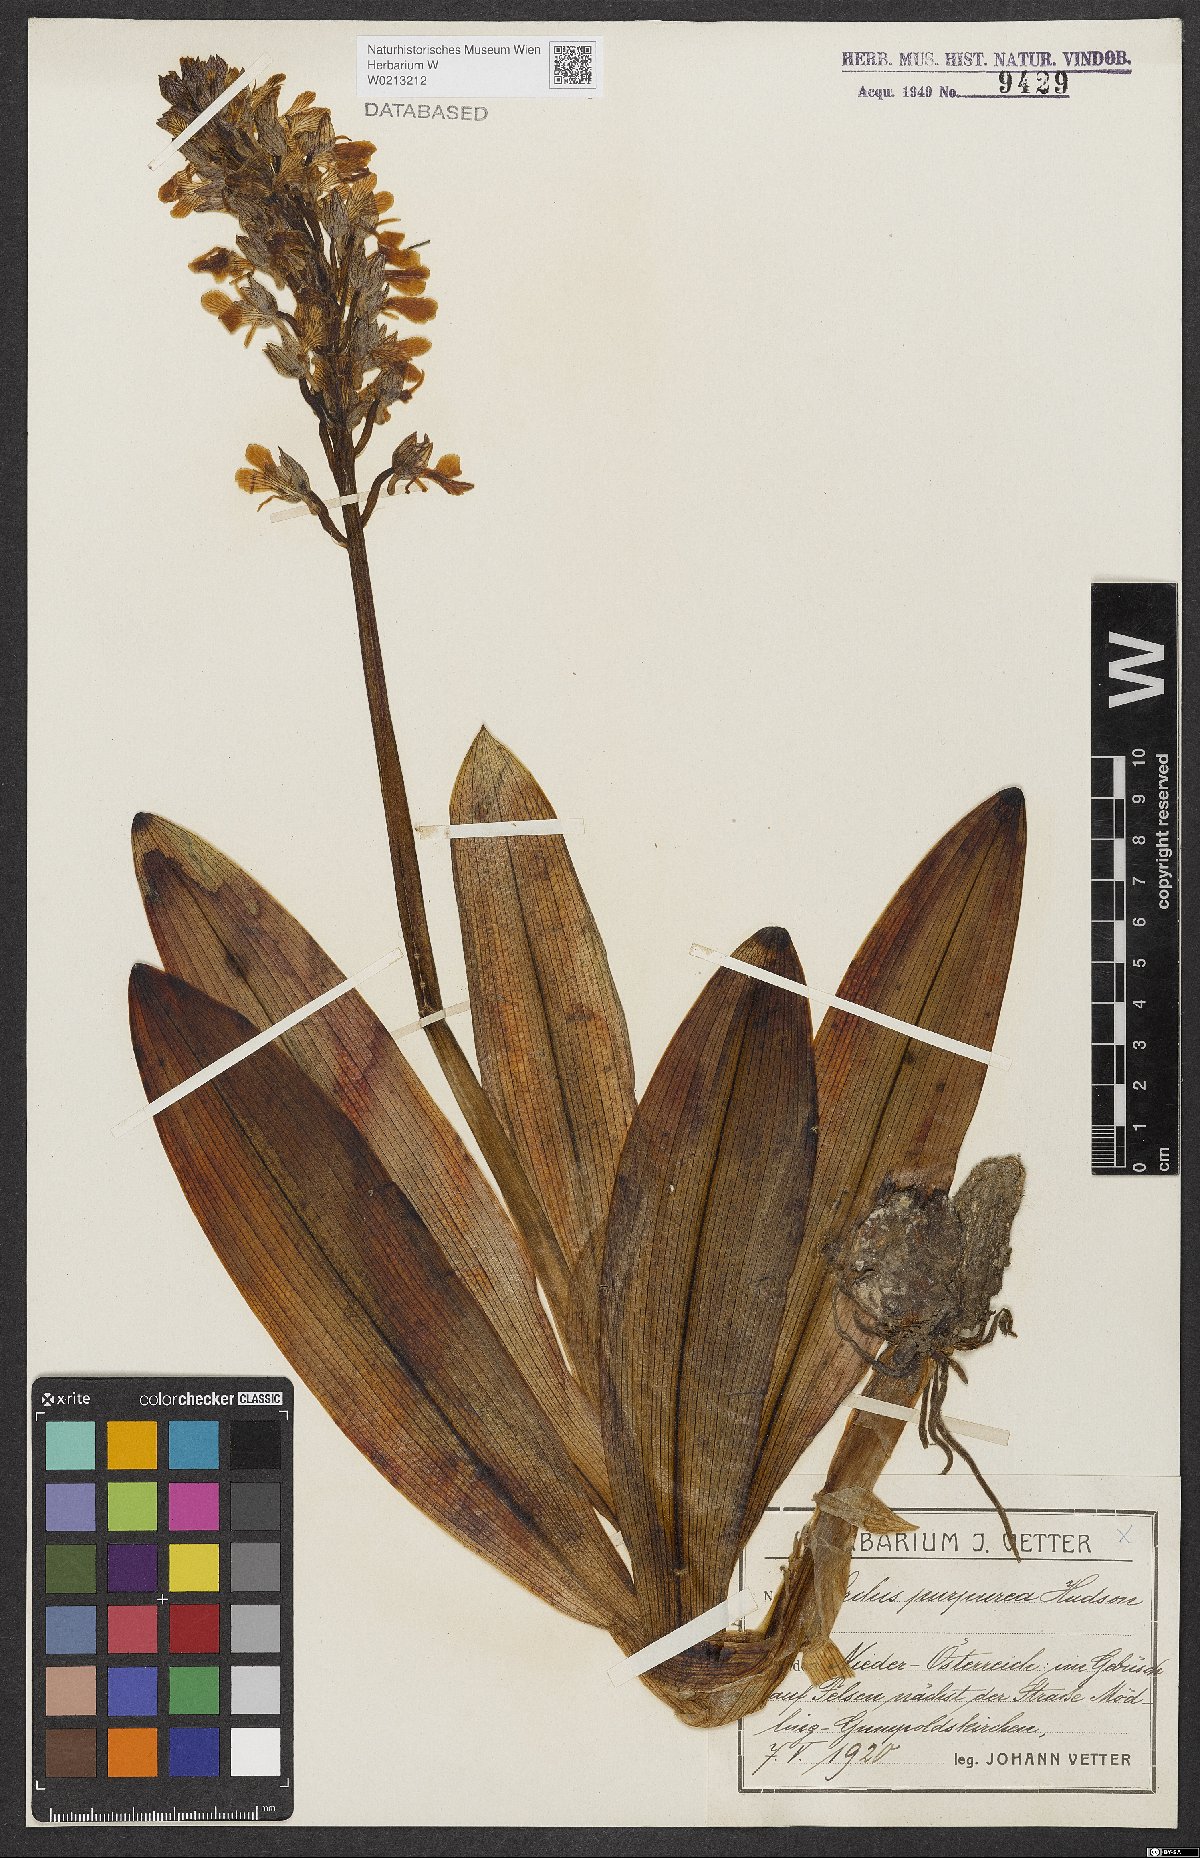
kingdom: Plantae
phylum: Tracheophyta
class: Liliopsida
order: Asparagales
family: Orchidaceae
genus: Orchis
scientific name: Orchis purpurea
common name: Lady orchid
